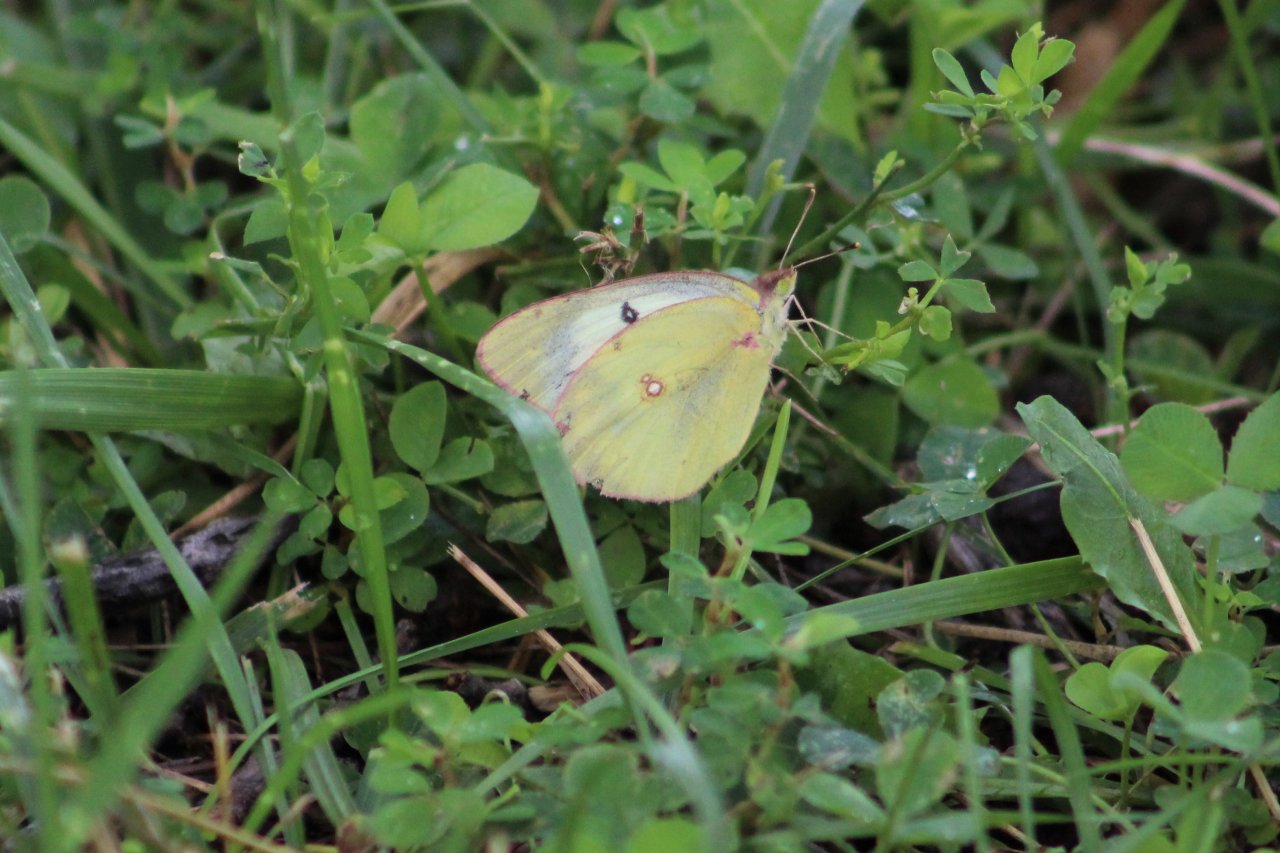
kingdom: Animalia
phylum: Arthropoda
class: Insecta
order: Lepidoptera
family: Pieridae
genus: Colias
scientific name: Colias philodice
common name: Clouded Sulphur
